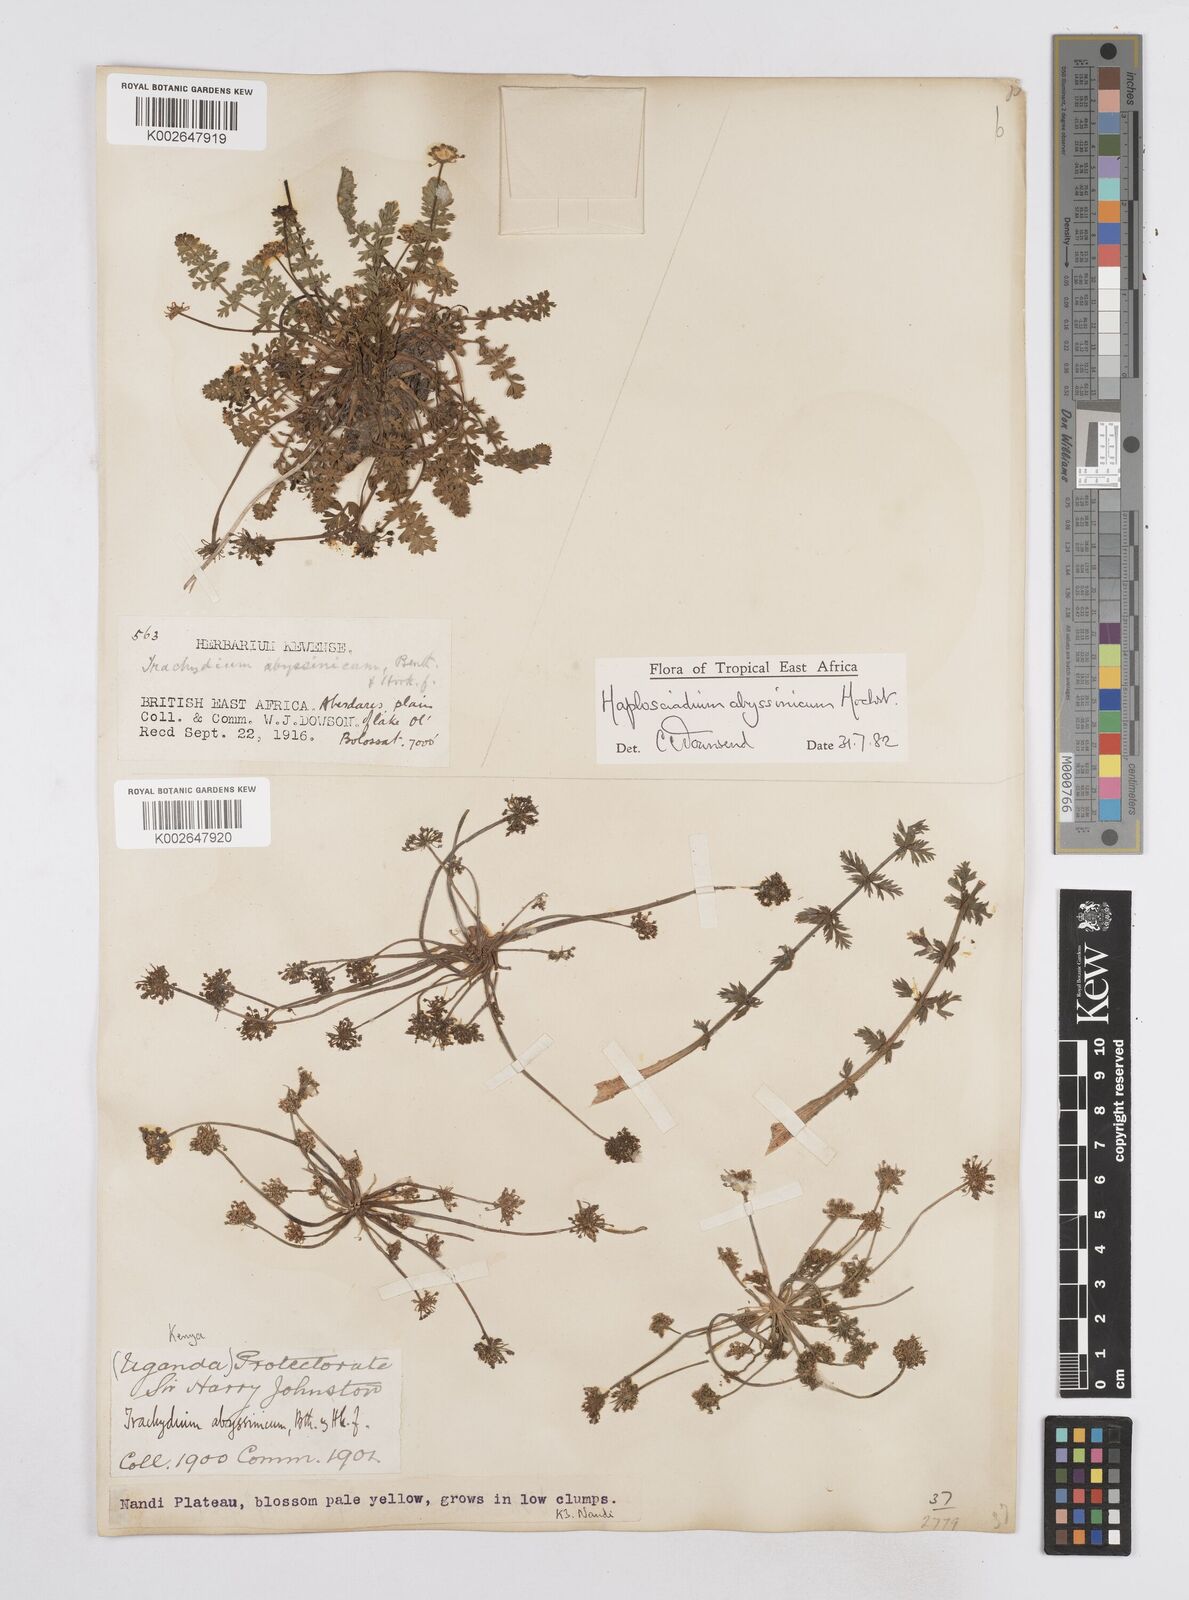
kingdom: Plantae
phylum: Tracheophyta
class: Magnoliopsida
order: Apiales
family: Apiaceae
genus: Haplosciadium
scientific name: Haplosciadium abyssinicum
